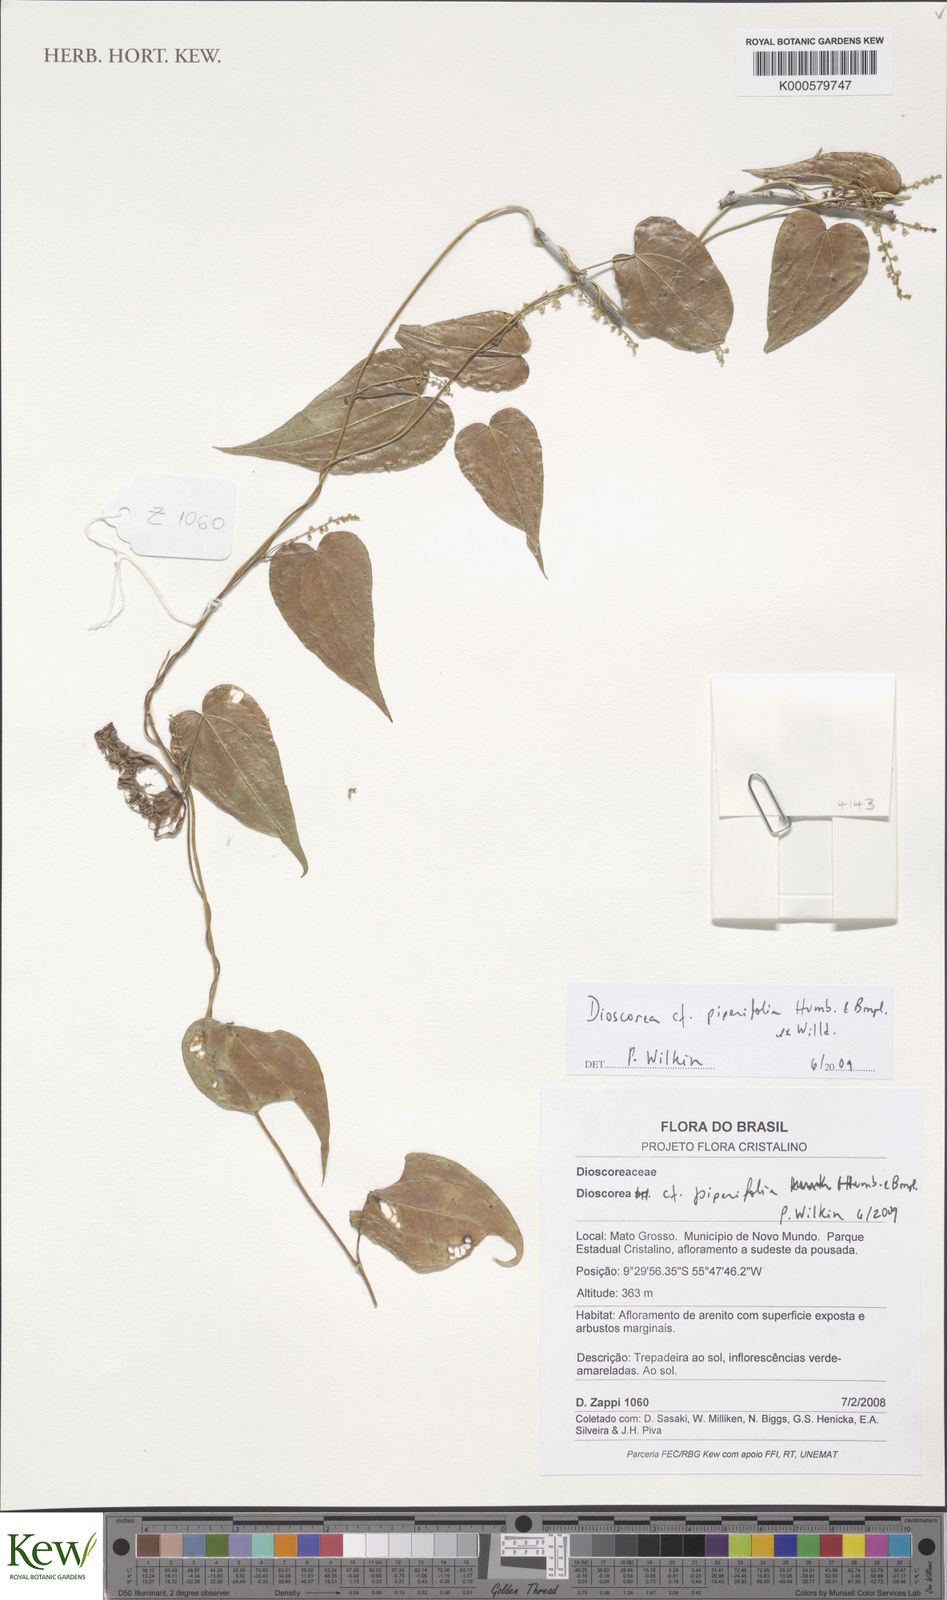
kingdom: Plantae
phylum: Tracheophyta
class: Liliopsida
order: Dioscoreales
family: Dioscoreaceae
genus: Dioscorea
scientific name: Dioscorea piperifolia
